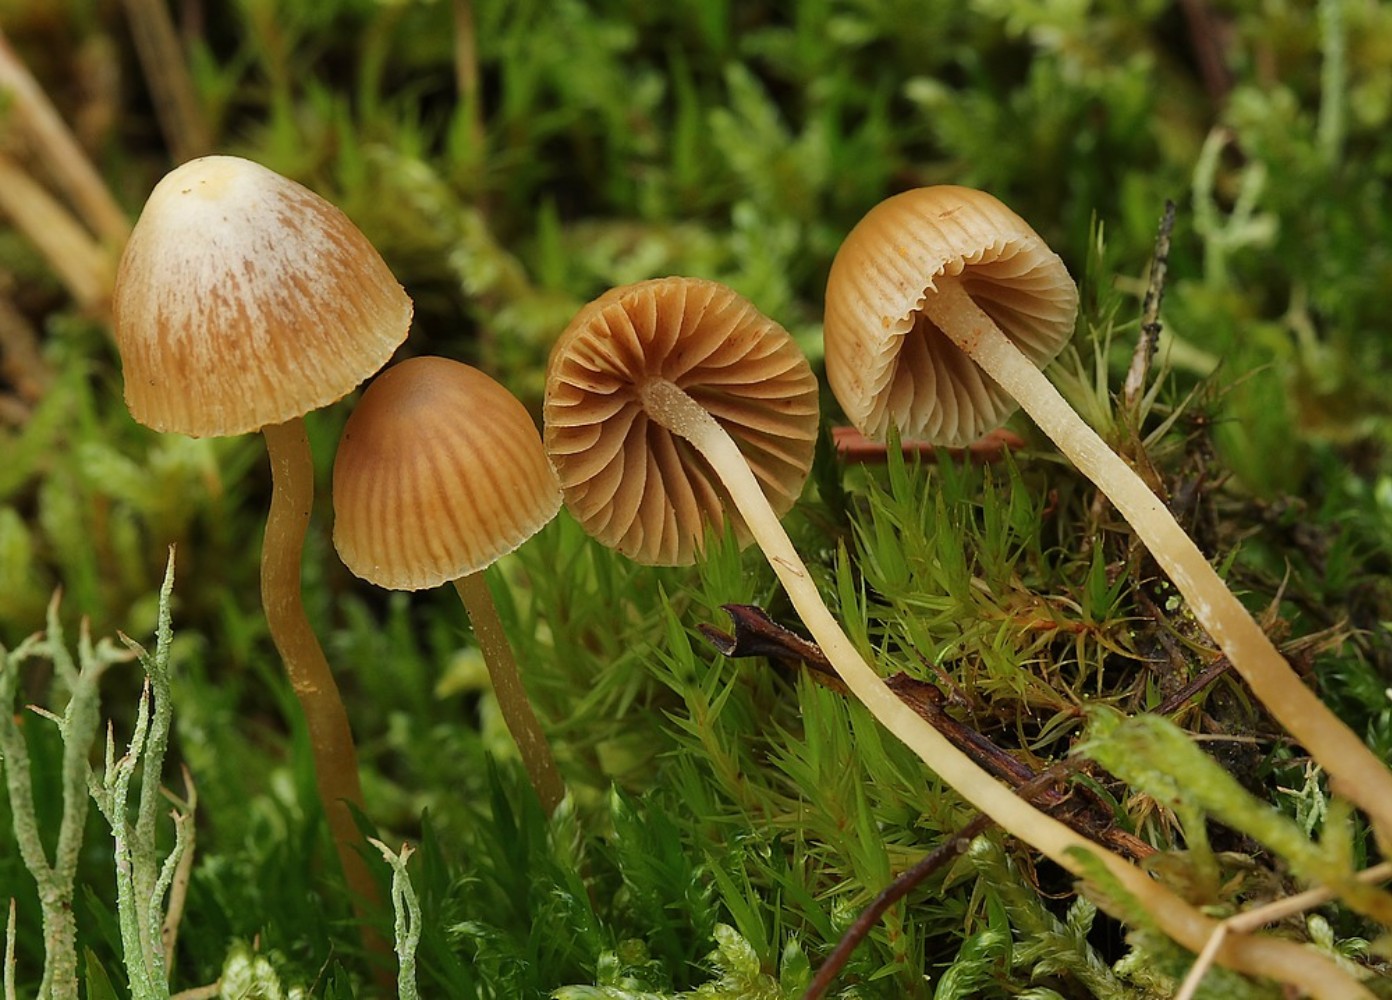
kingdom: Fungi
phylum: Basidiomycota
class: Agaricomycetes
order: Agaricales
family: Hymenogastraceae
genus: Galerina
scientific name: Galerina
